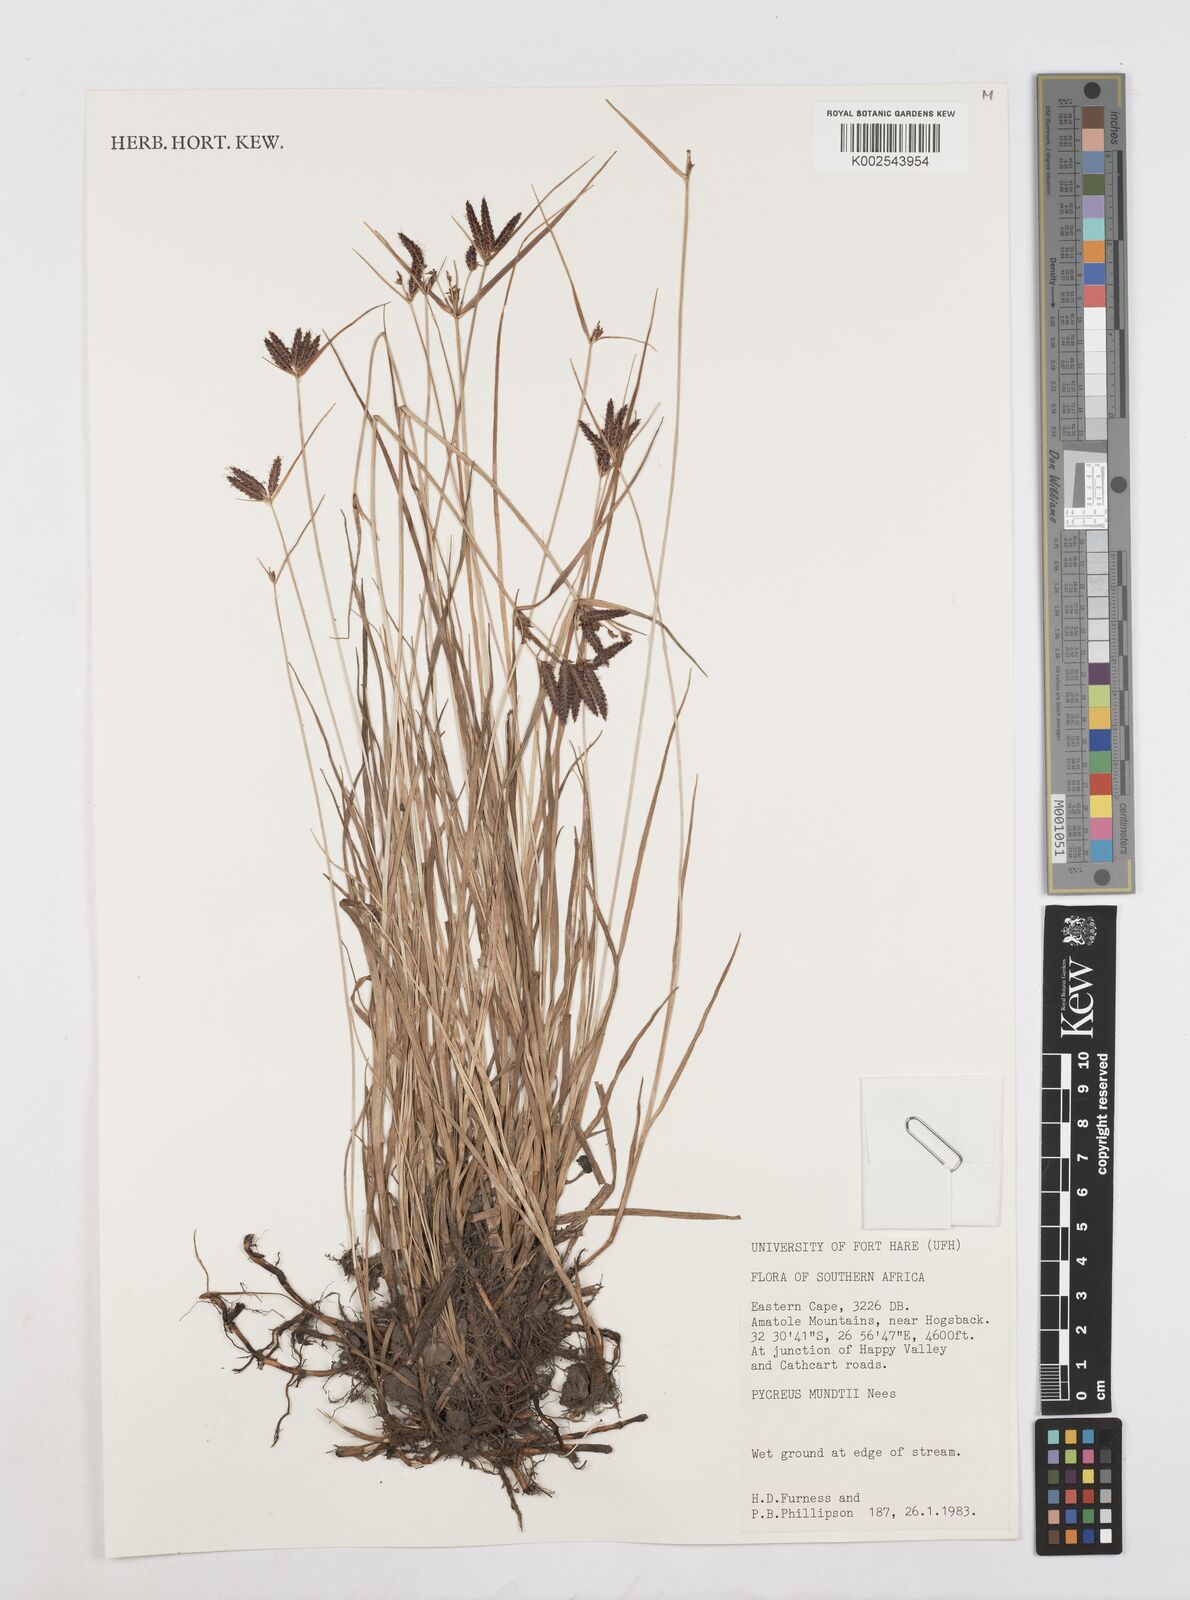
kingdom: Plantae
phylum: Tracheophyta
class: Liliopsida
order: Poales
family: Cyperaceae
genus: Cyperus
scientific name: Cyperus
